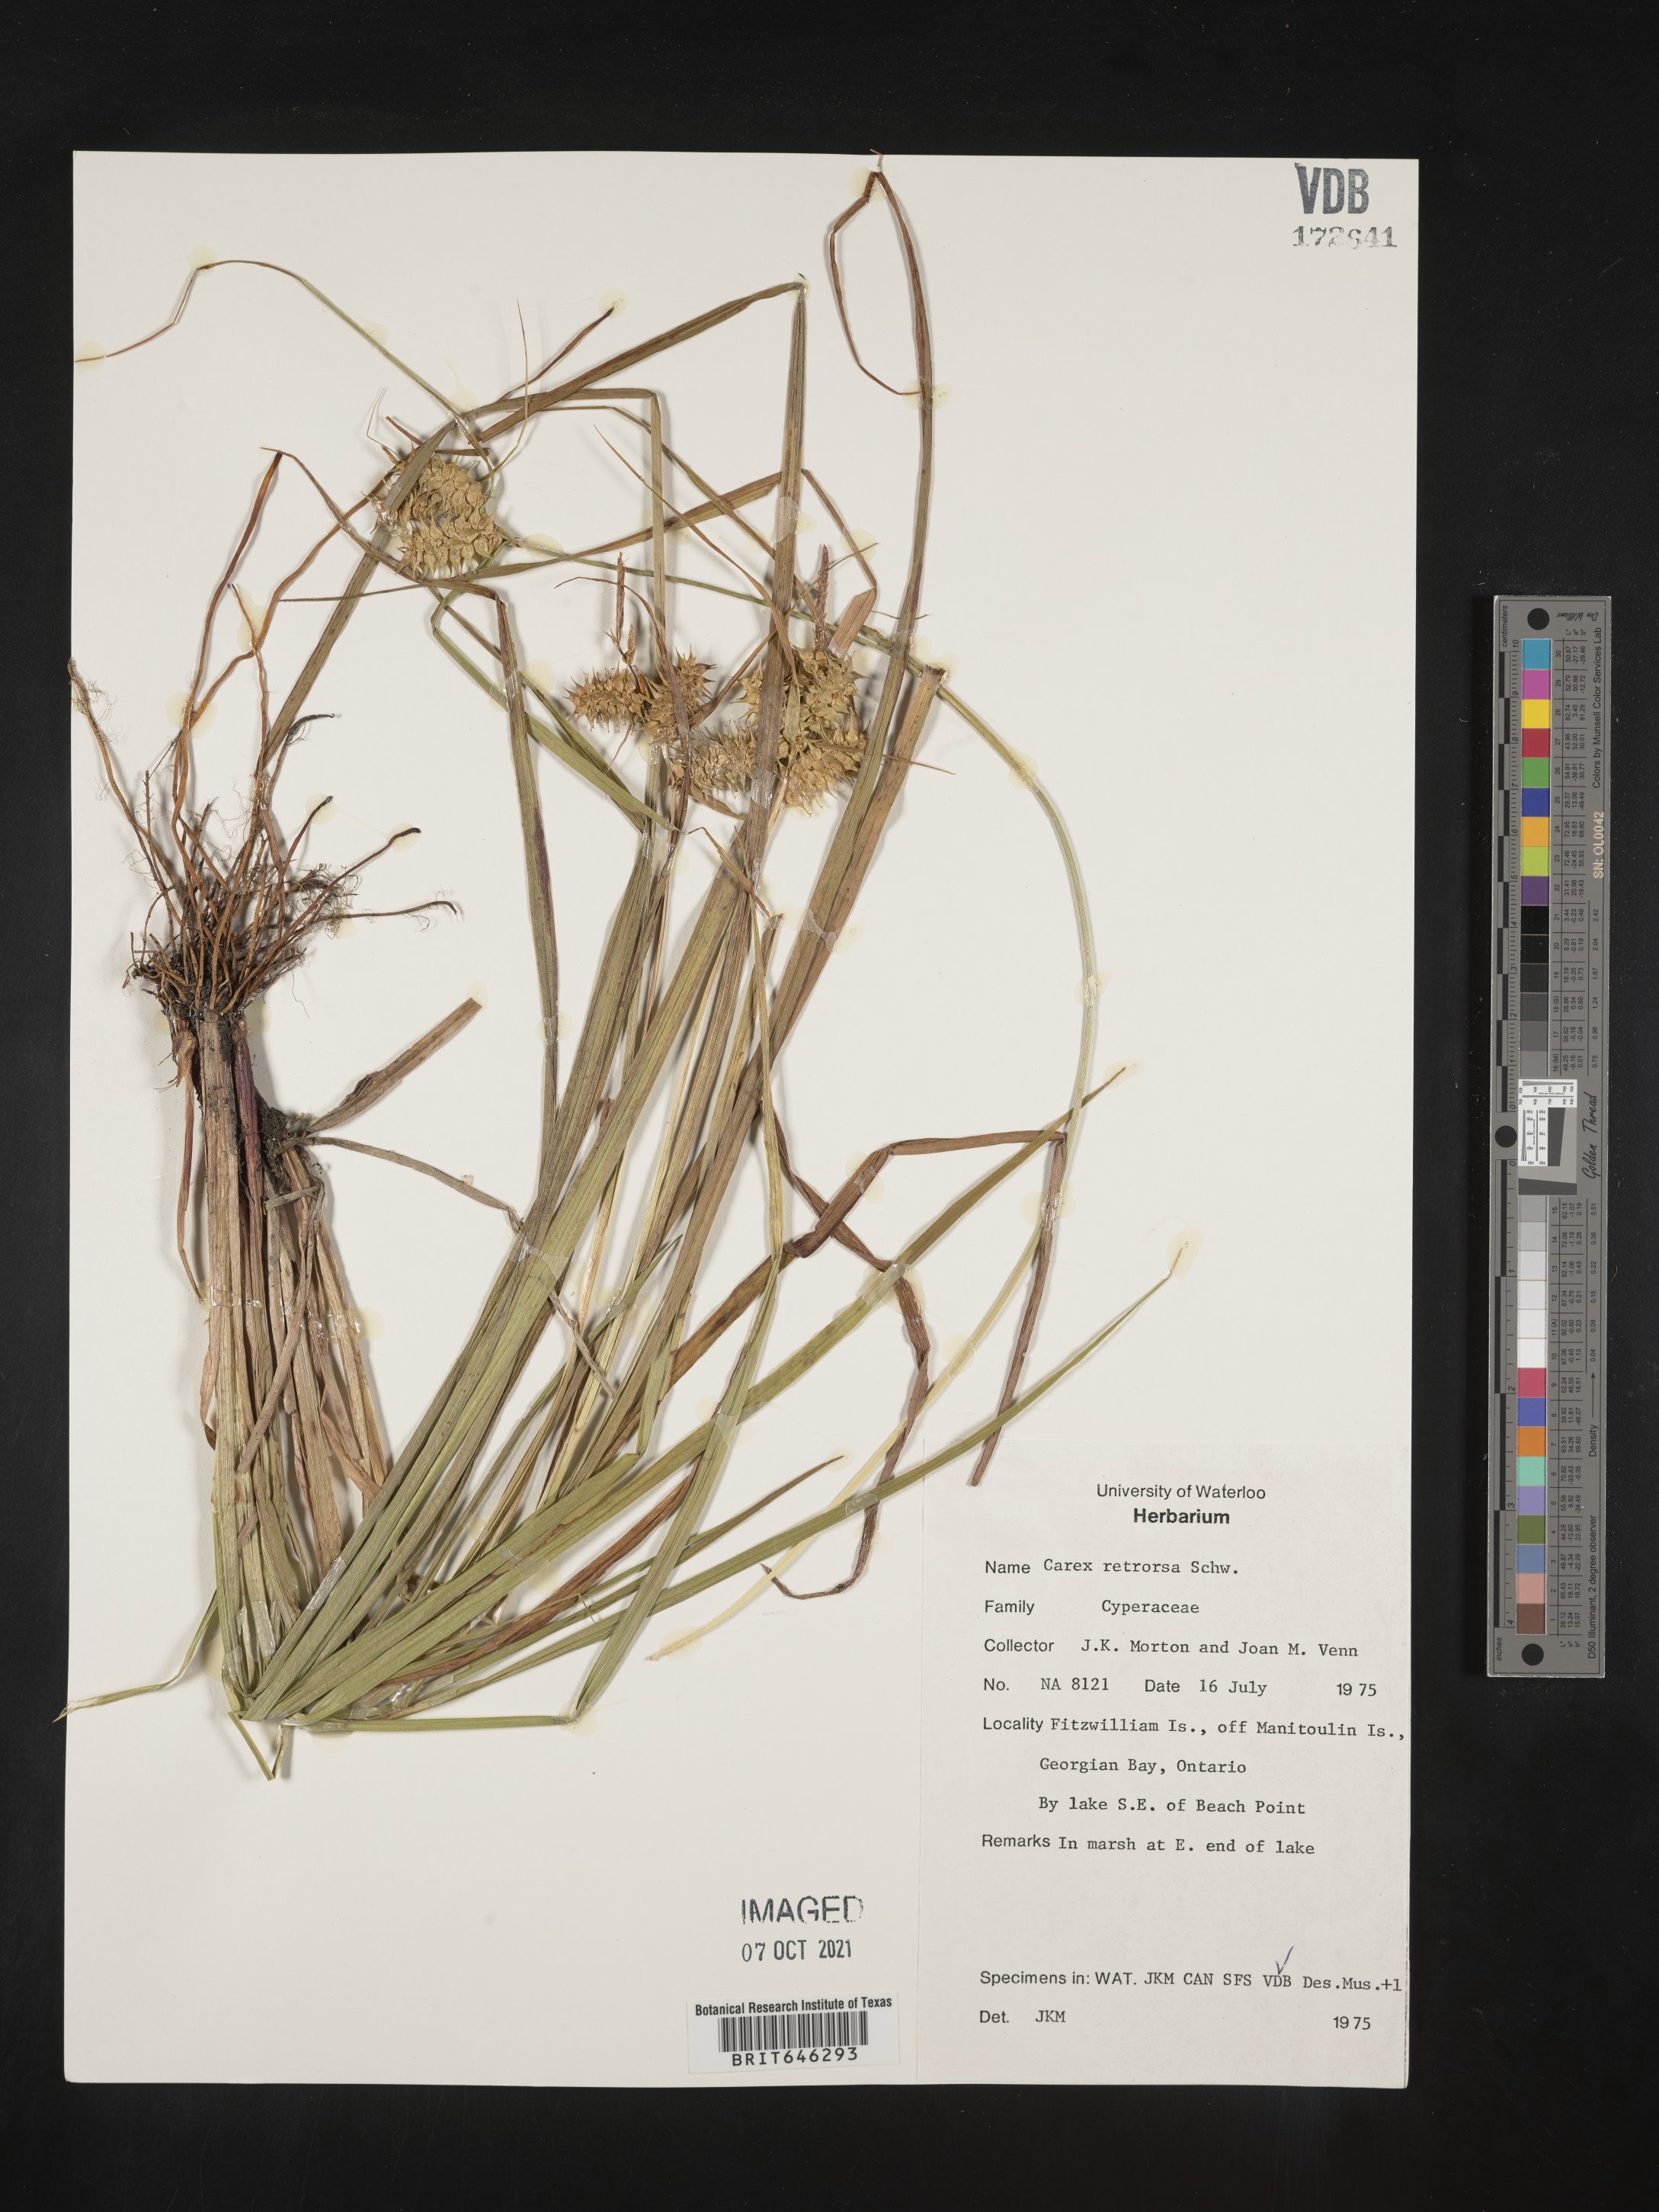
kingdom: Plantae
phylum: Tracheophyta
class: Liliopsida
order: Poales
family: Cyperaceae
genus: Carex
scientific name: Carex retrorsa
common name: Knot-sheath sedge
